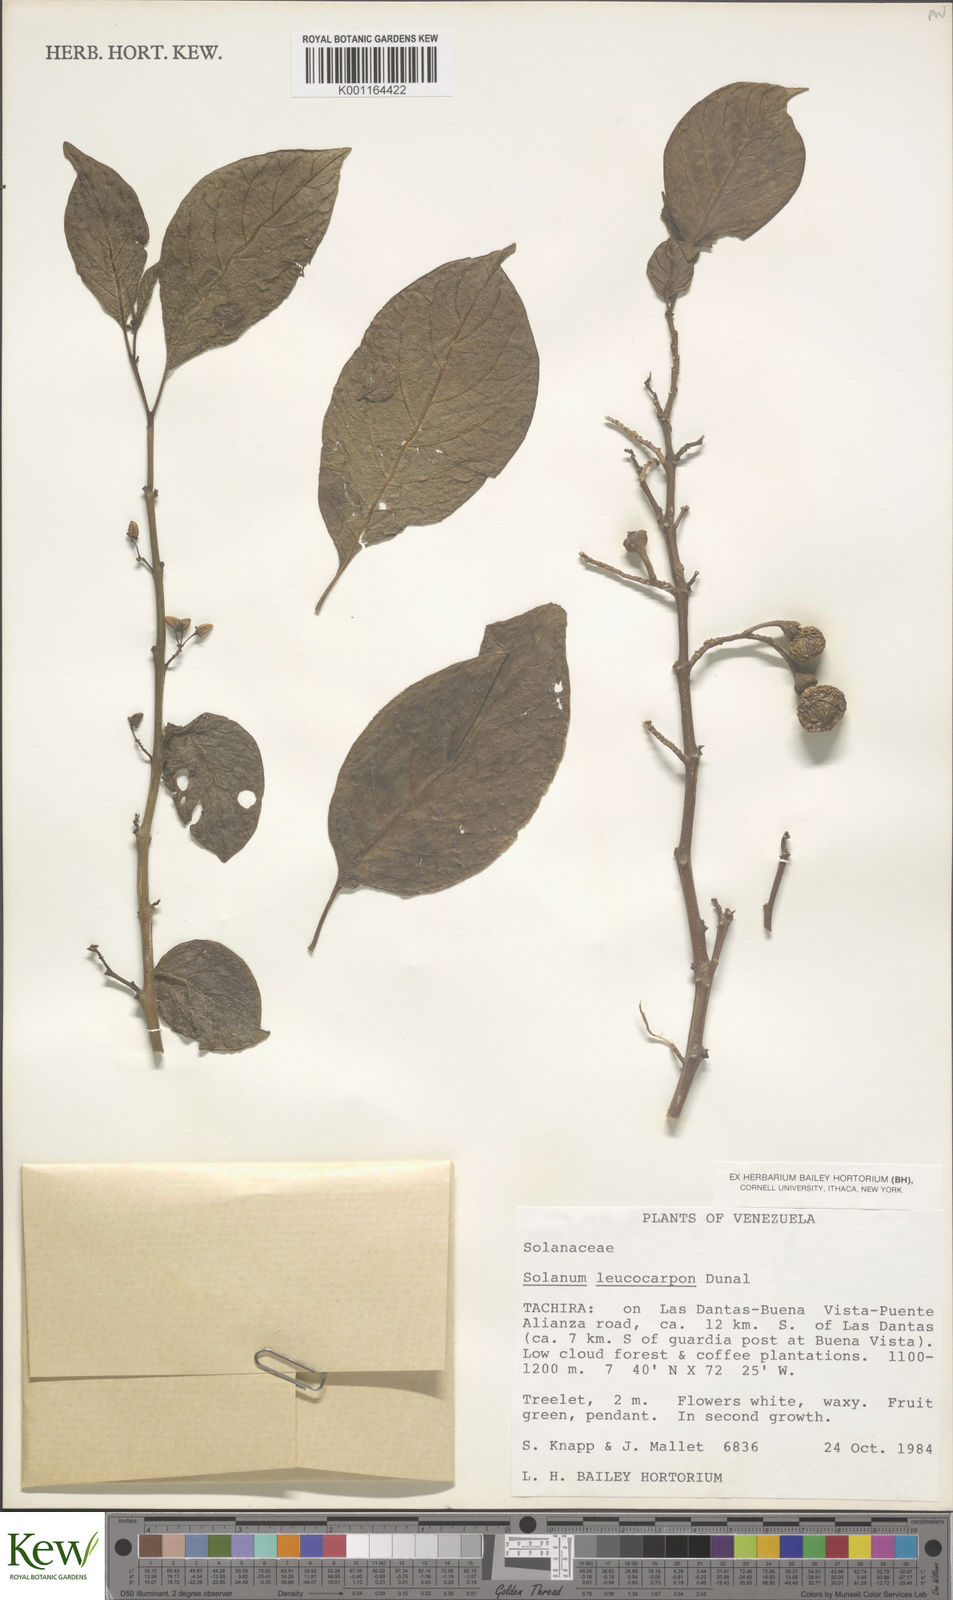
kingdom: Plantae
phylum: Tracheophyta
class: Magnoliopsida
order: Solanales
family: Solanaceae
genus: Solanum
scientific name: Solanum leucocarpon
